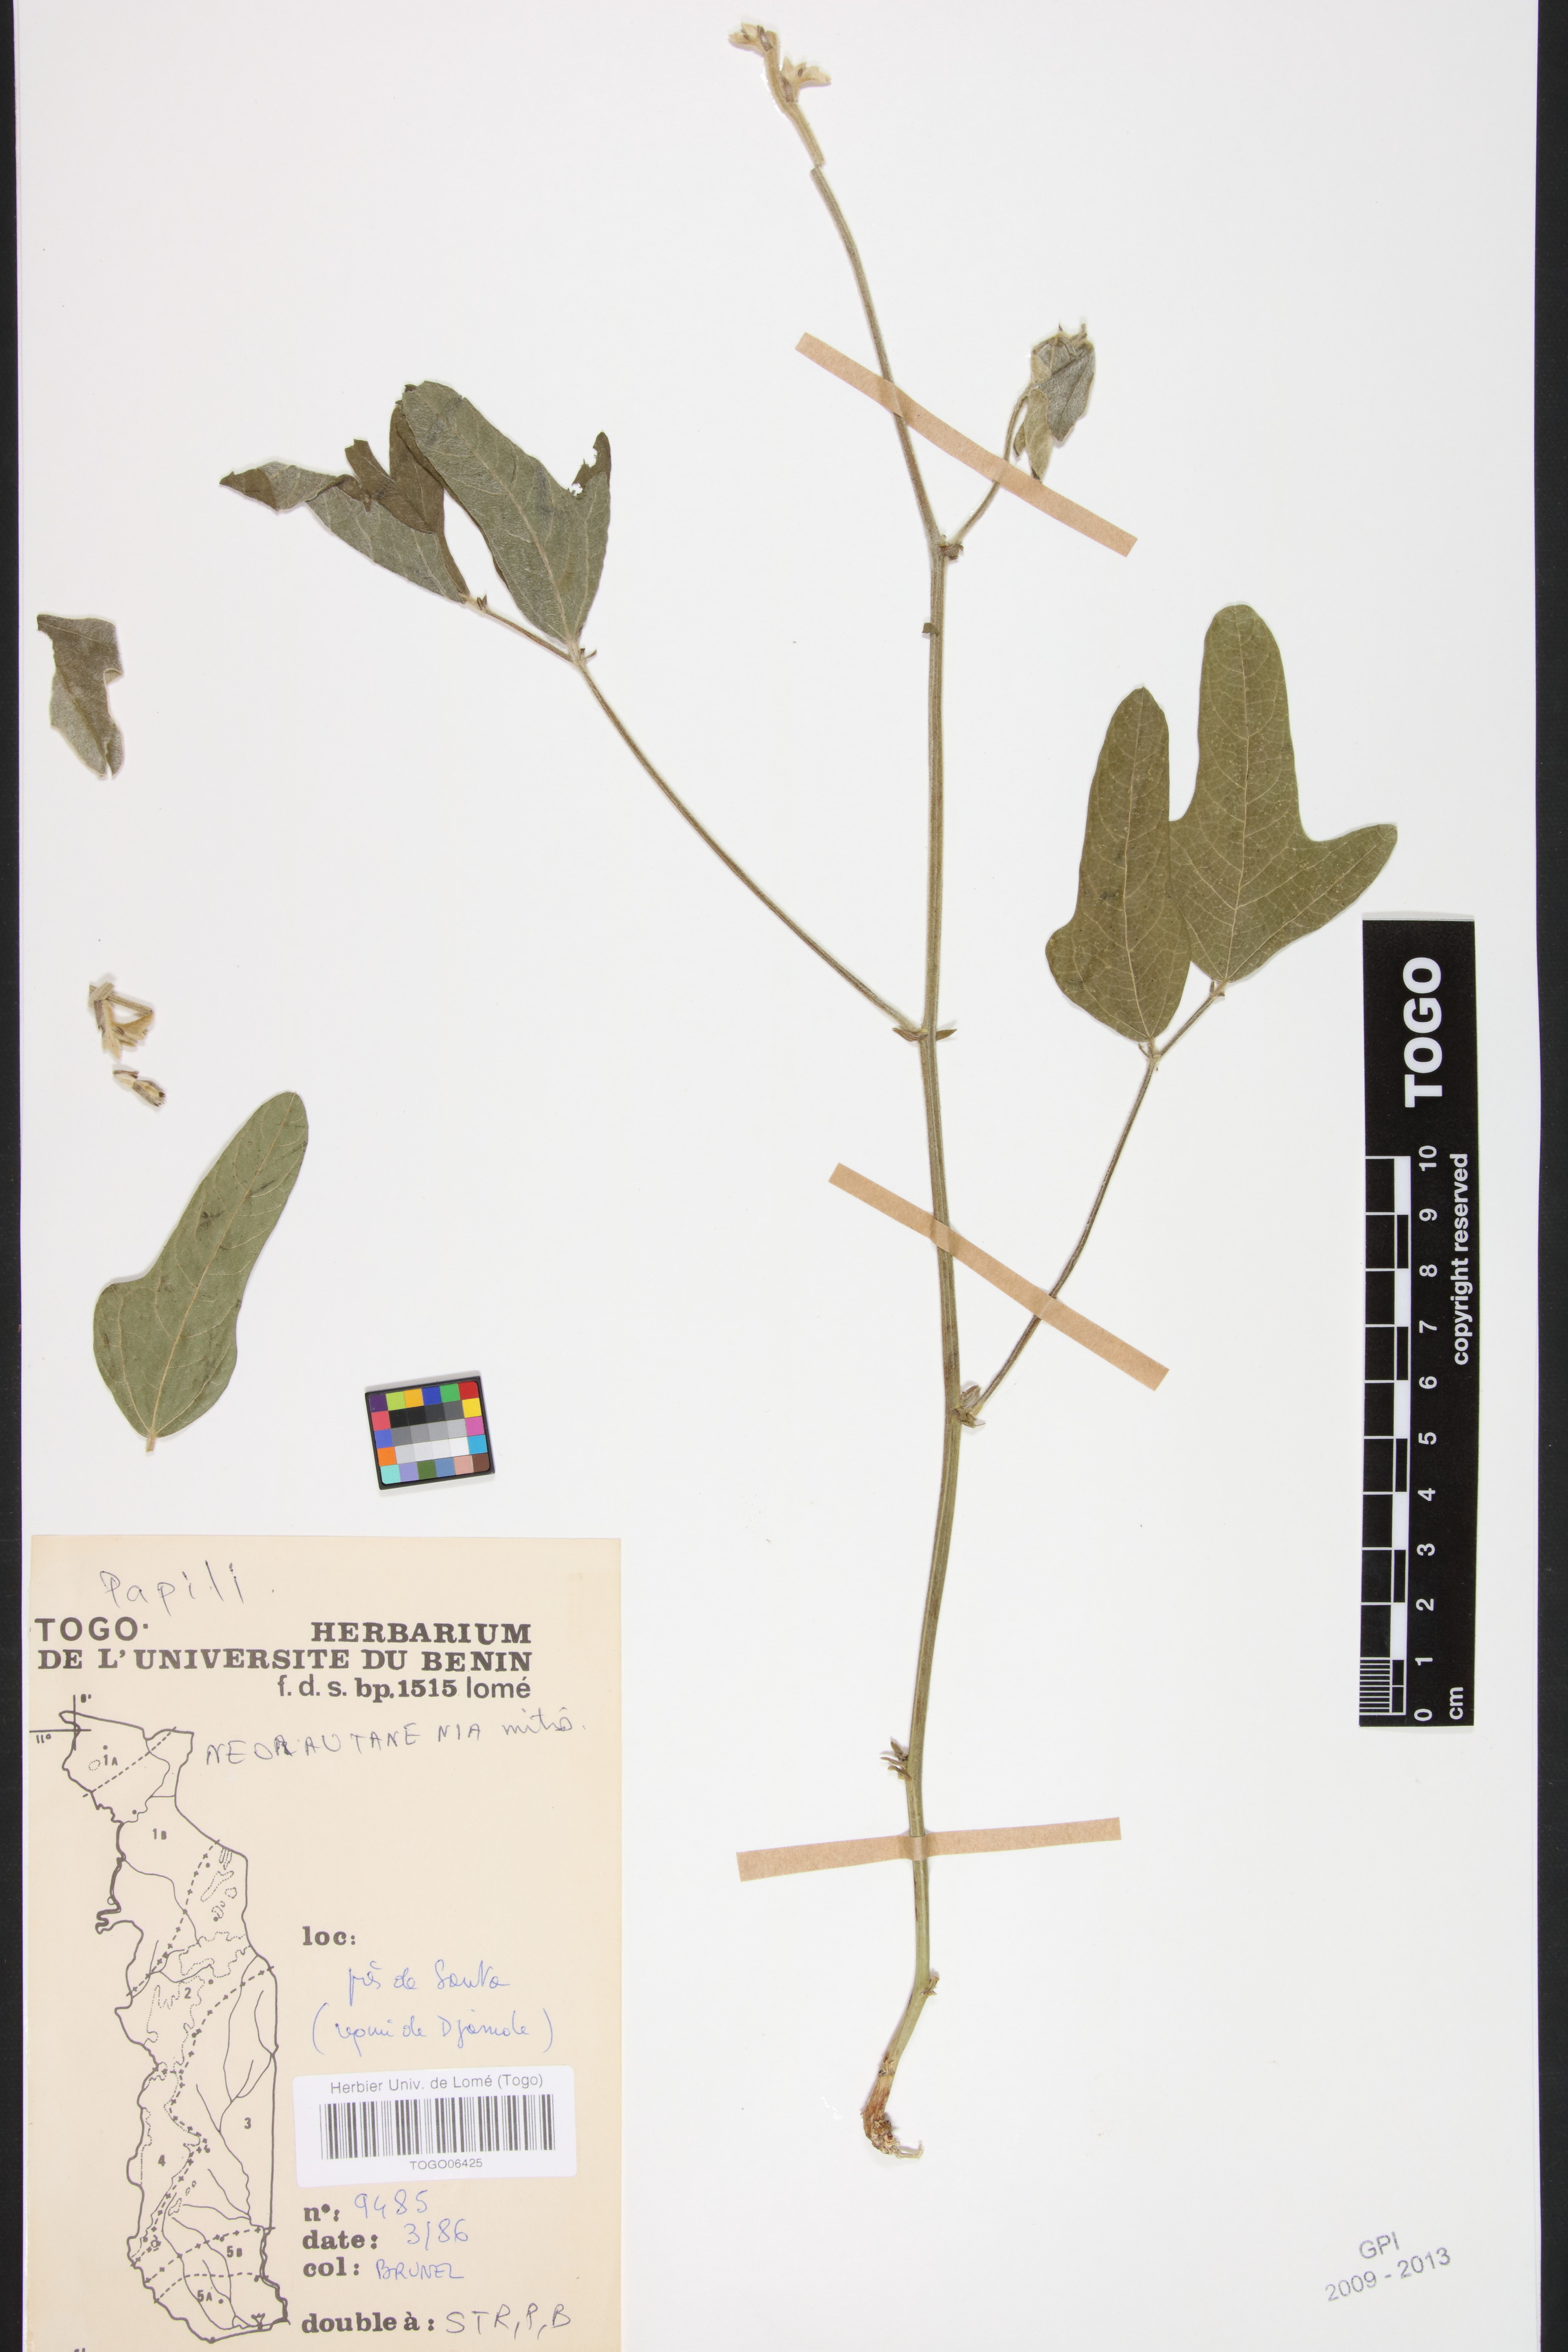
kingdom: Plantae
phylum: Tracheophyta
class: Magnoliopsida
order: Fabales
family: Fabaceae
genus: Neorautanenia
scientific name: Neorautanenia mitis
